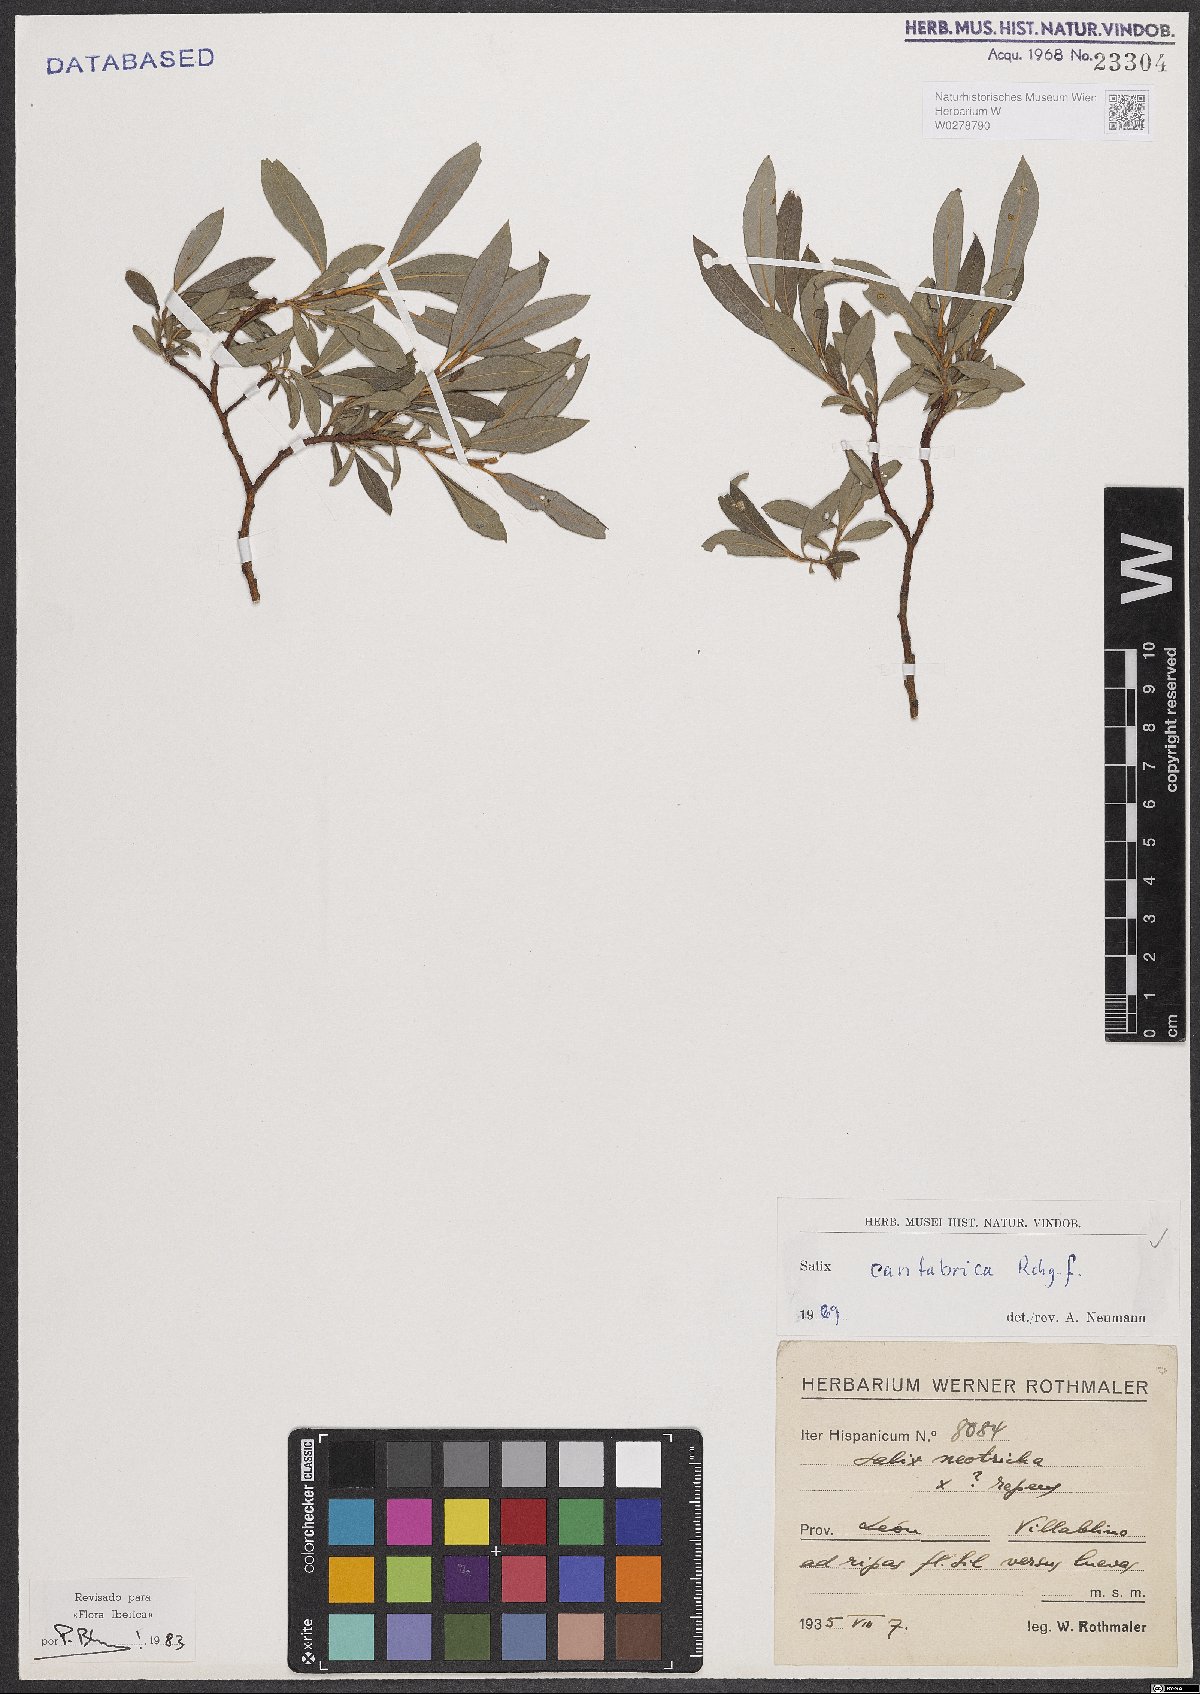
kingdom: Plantae
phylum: Tracheophyta
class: Magnoliopsida
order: Malpighiales
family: Salicaceae
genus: Salix
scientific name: Salix cantabrica
